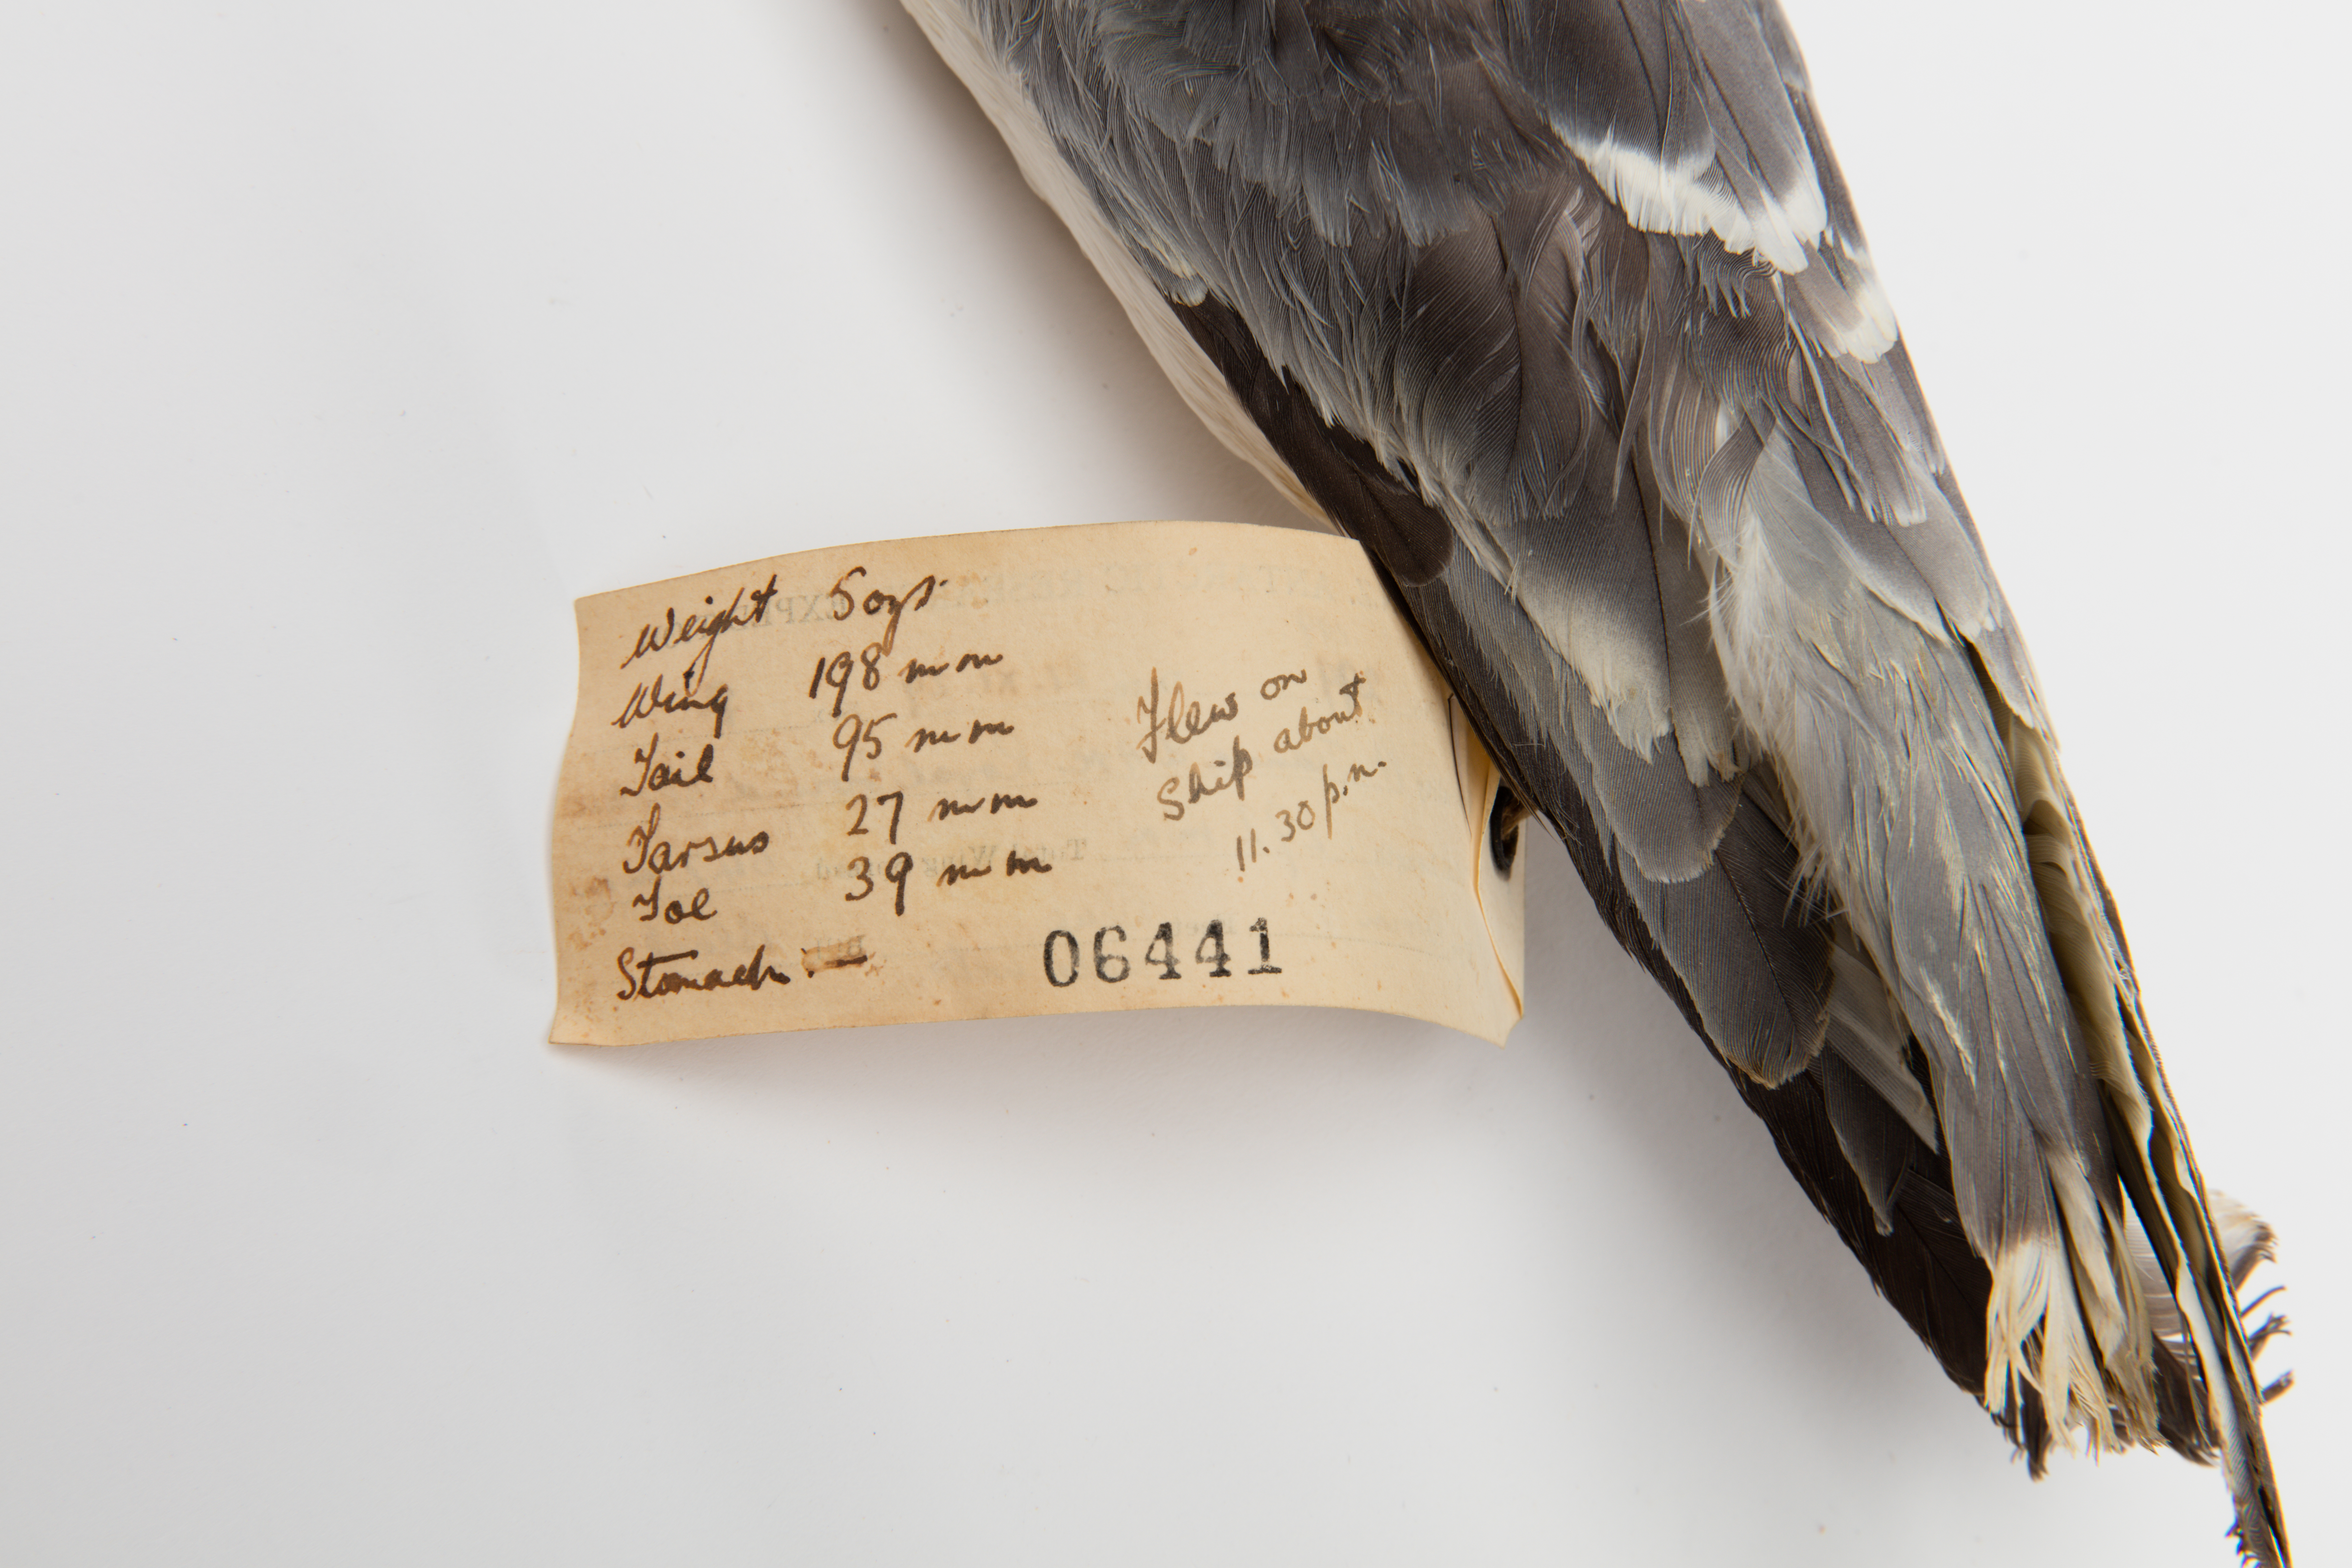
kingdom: Animalia
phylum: Chordata
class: Aves
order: Procellariiformes
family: Procellariidae
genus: Halobaena
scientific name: Halobaena caerulea
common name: Blue petrel
